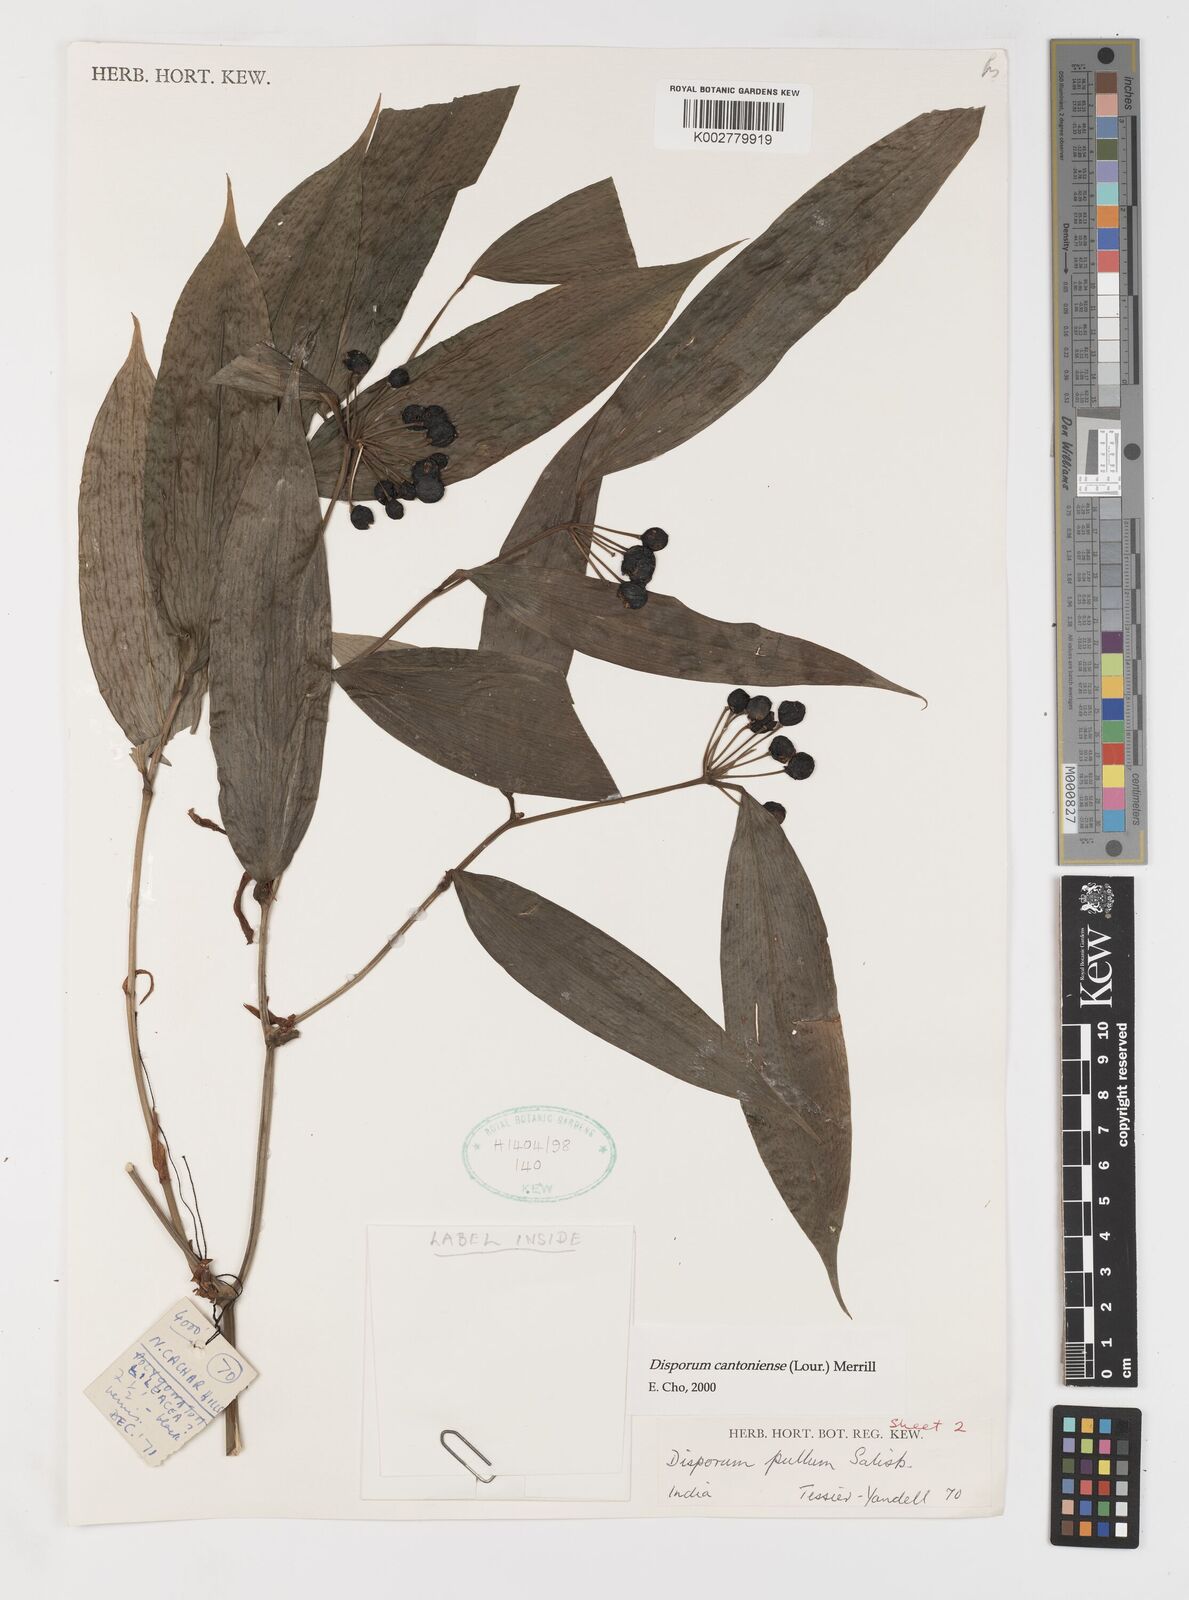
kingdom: Plantae
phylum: Tracheophyta
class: Liliopsida
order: Liliales
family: Colchicaceae
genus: Disporum
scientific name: Disporum cantoniense
